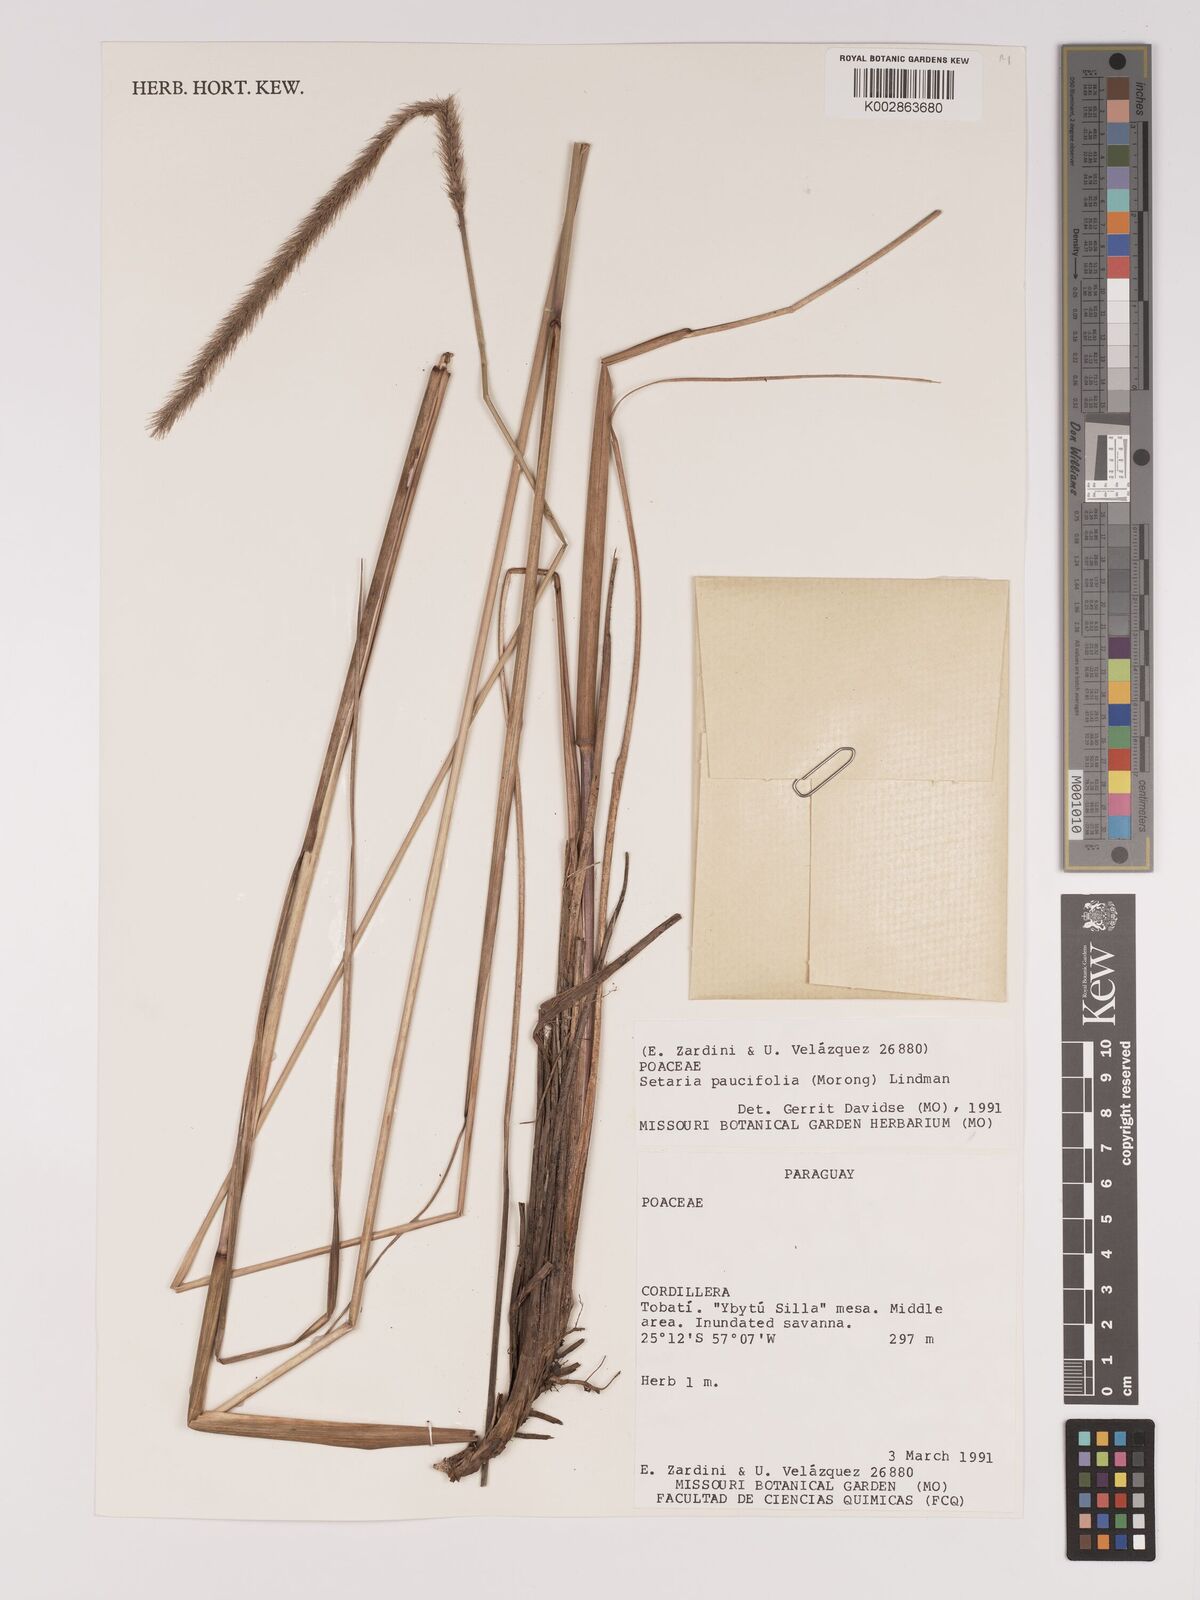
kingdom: Plantae
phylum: Tracheophyta
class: Liliopsida
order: Poales
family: Poaceae
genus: Setaria
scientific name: Setaria paucifolia
